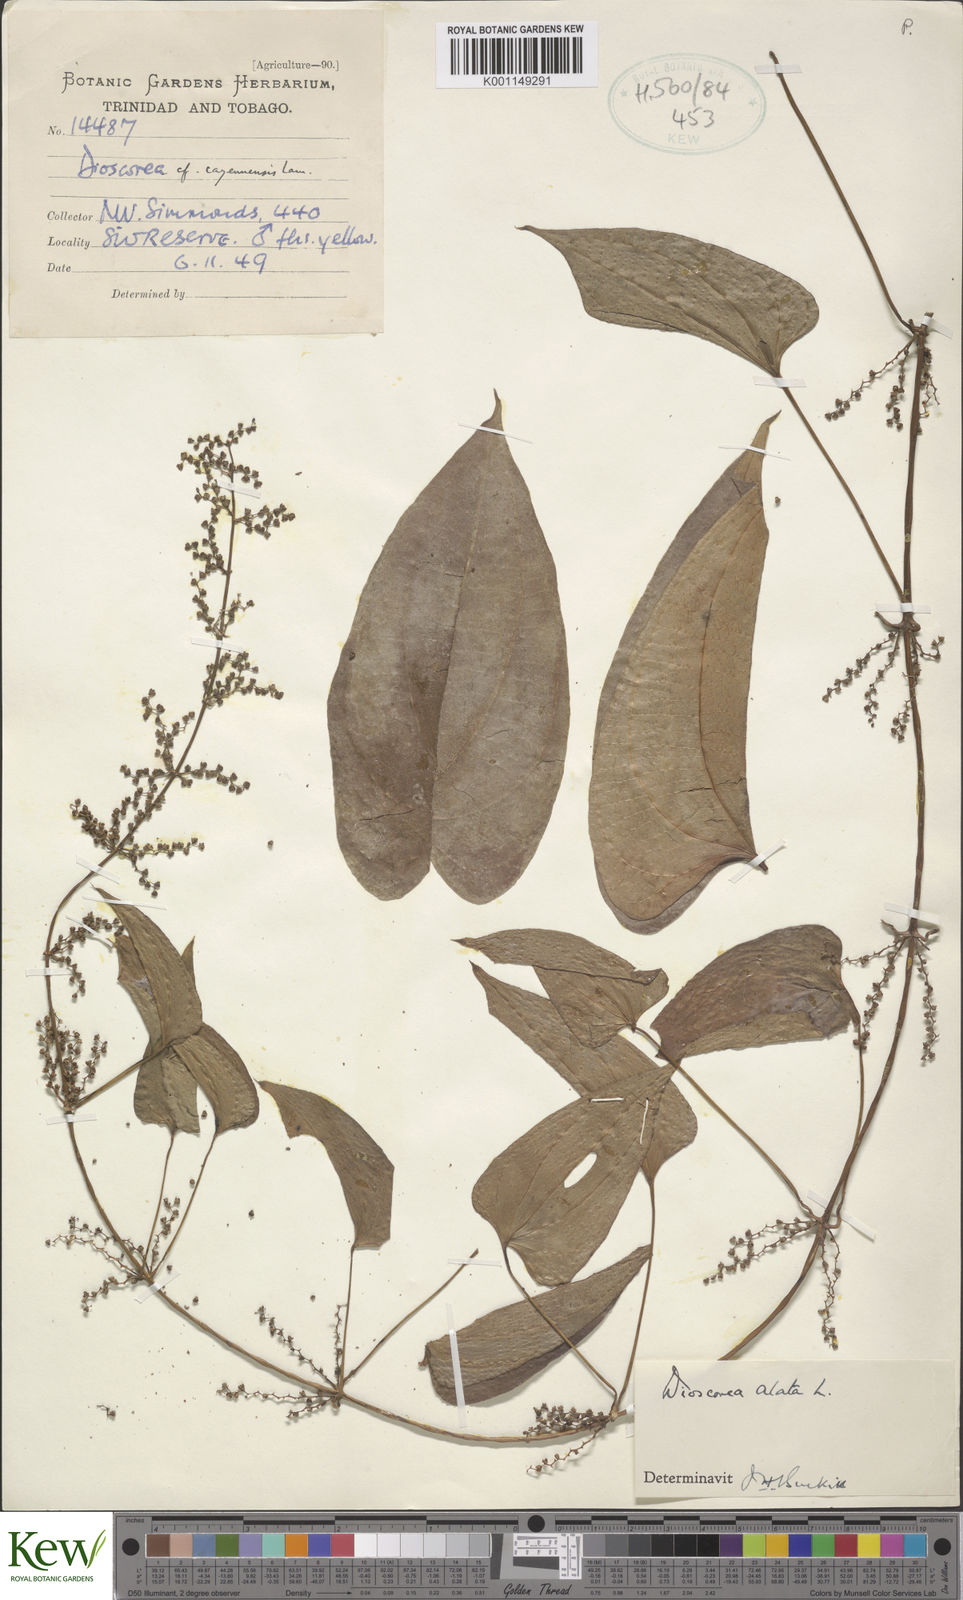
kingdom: Plantae
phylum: Tracheophyta
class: Liliopsida
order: Dioscoreales
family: Dioscoreaceae
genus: Dioscorea
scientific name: Dioscorea alata
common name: Water yam
